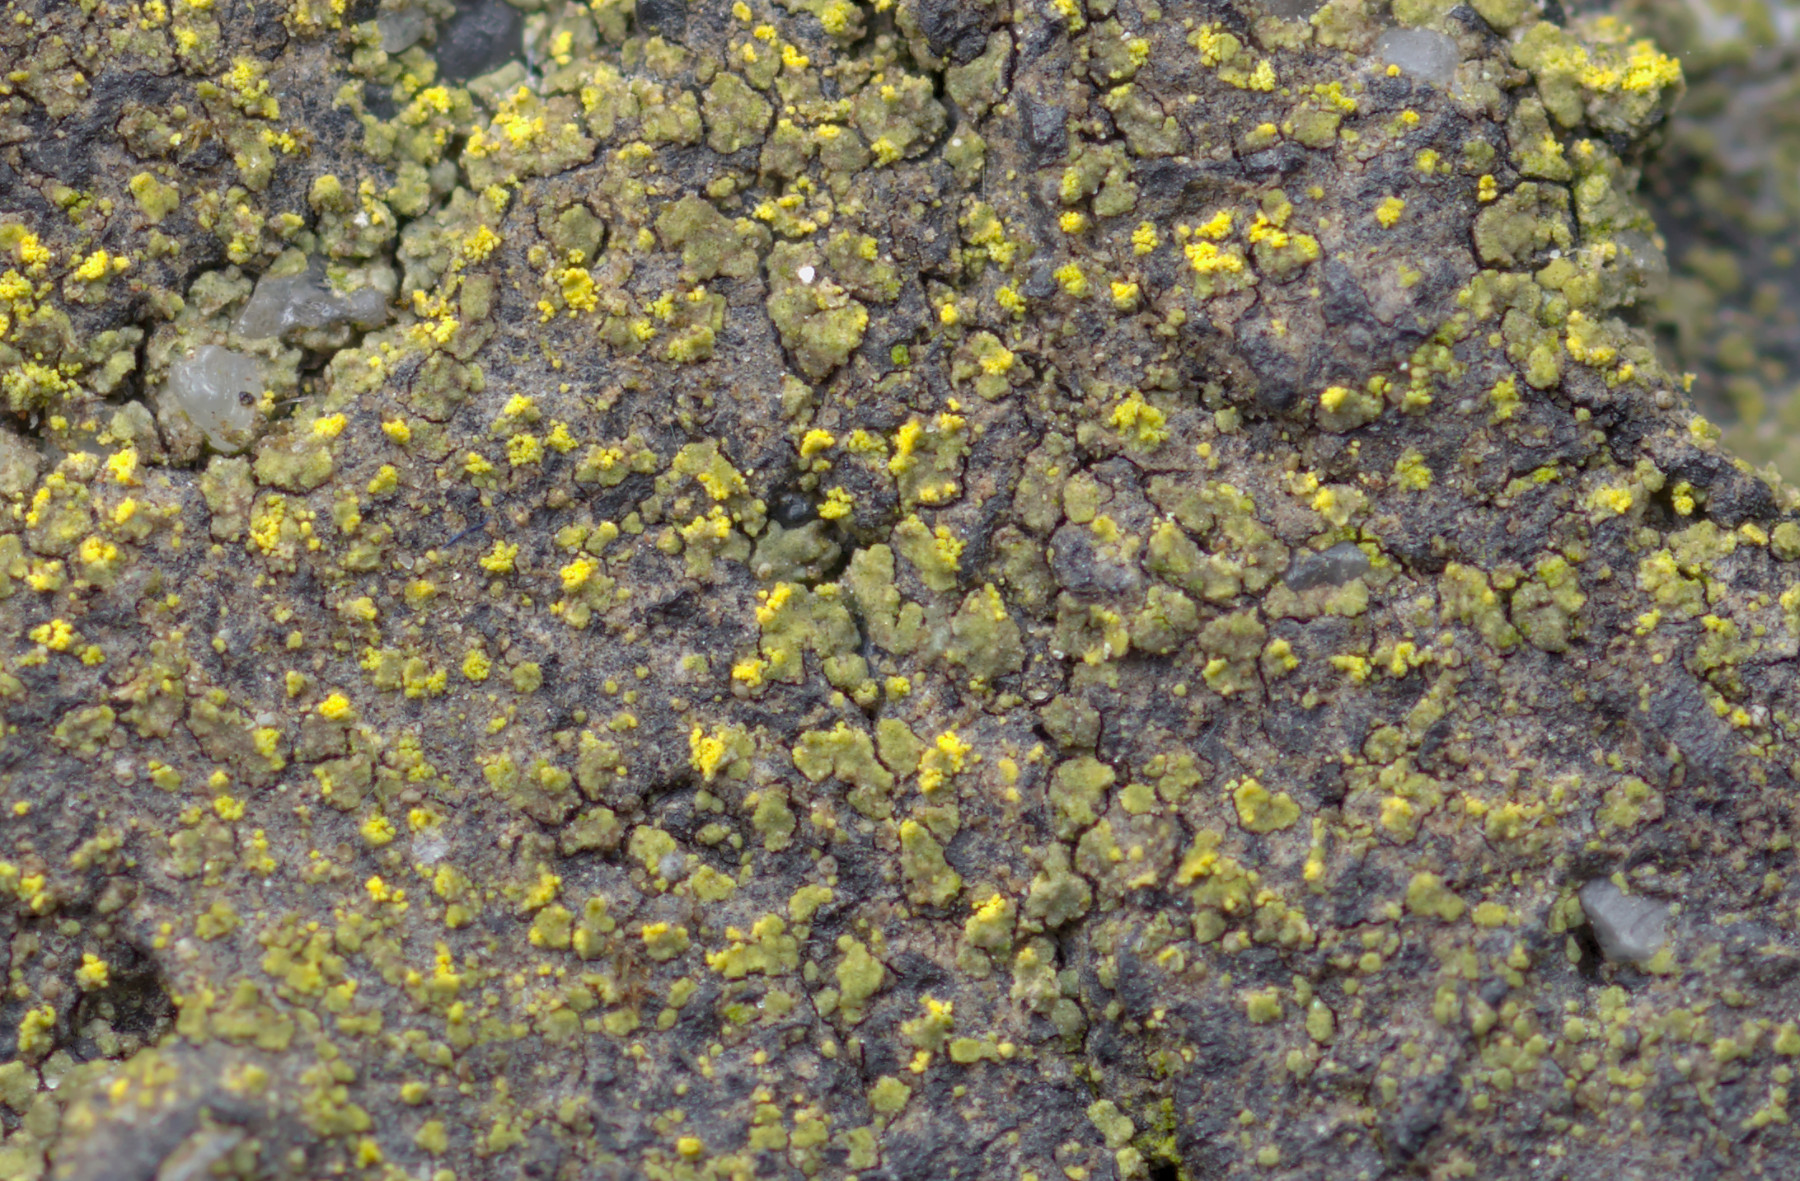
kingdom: Fungi
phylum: Ascomycota
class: Lecanoromycetes
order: Teloschistales
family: Teloschistaceae
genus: Flavoplaca
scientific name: Flavoplaca flavocitrina
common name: grynskællet orangelav
